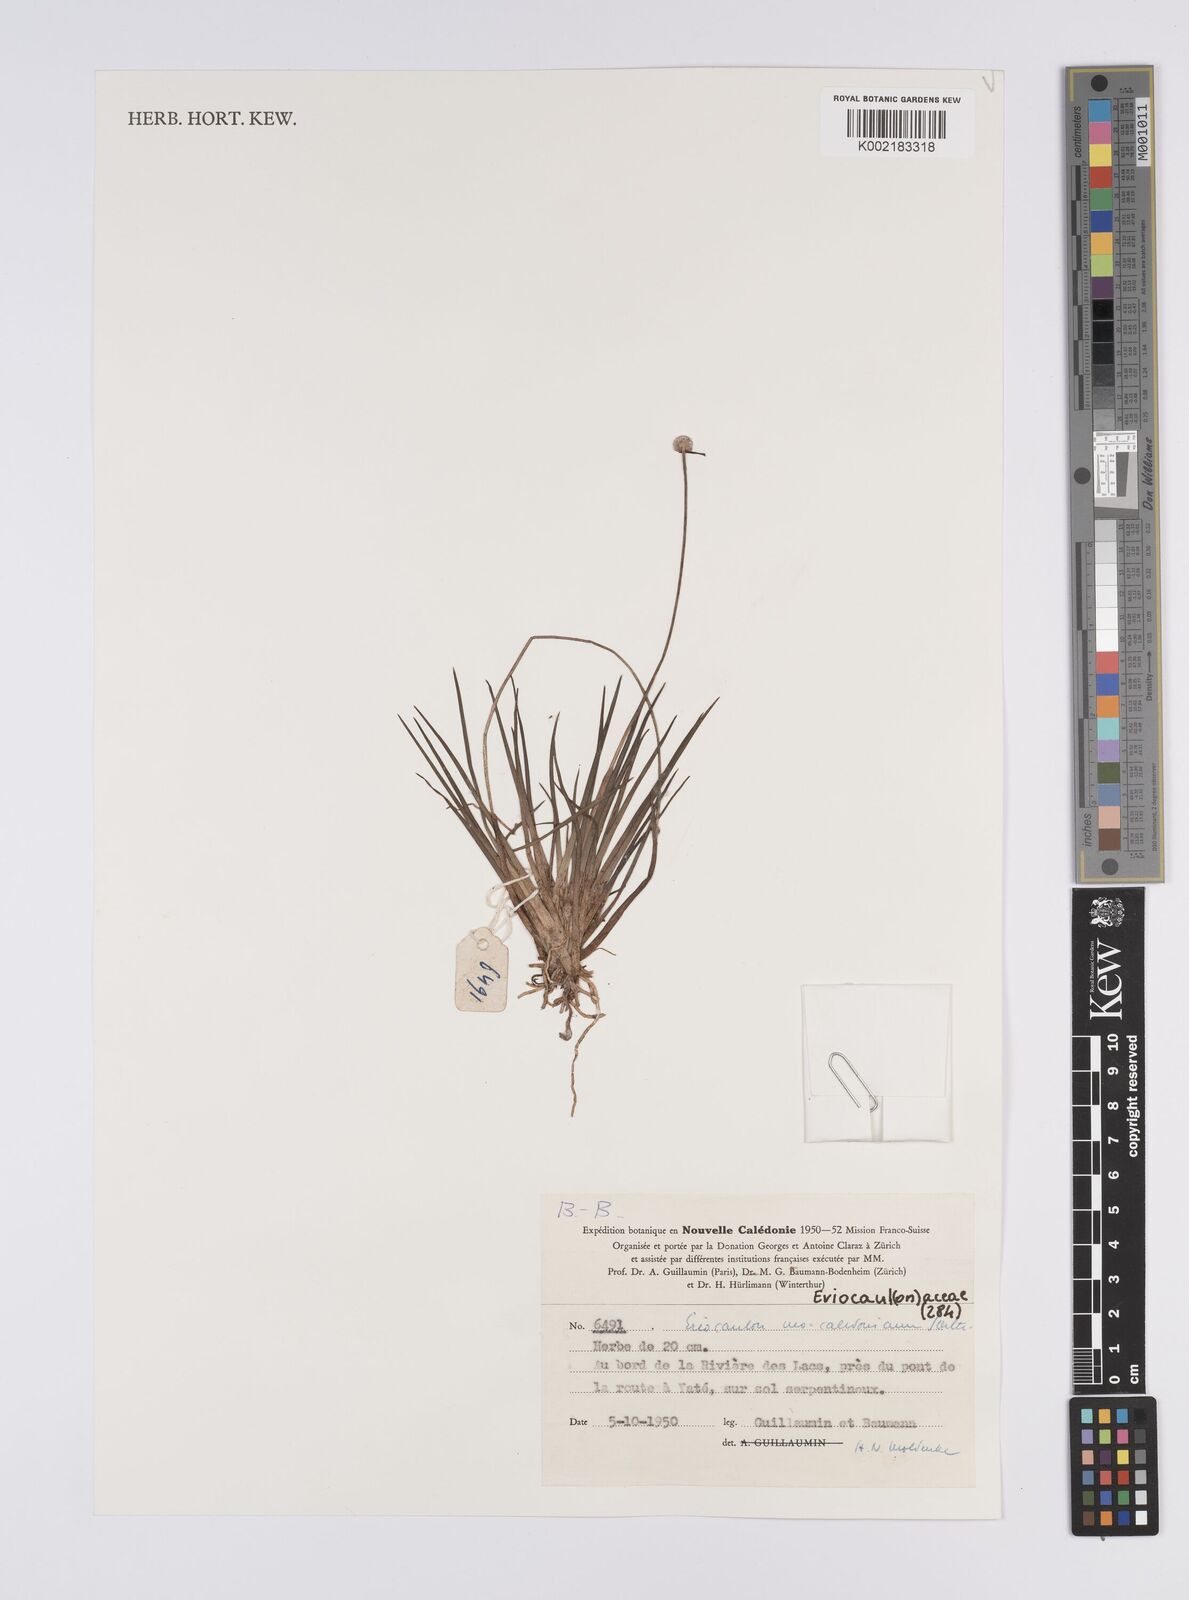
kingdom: Plantae
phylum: Tracheophyta
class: Liliopsida
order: Poales
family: Eriocaulaceae
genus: Eriocaulon
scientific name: Eriocaulon neocaledonicum
